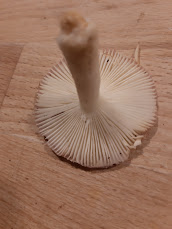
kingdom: Fungi
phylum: Basidiomycota
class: Agaricomycetes
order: Russulales
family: Russulaceae
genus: Russula
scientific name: Russula
